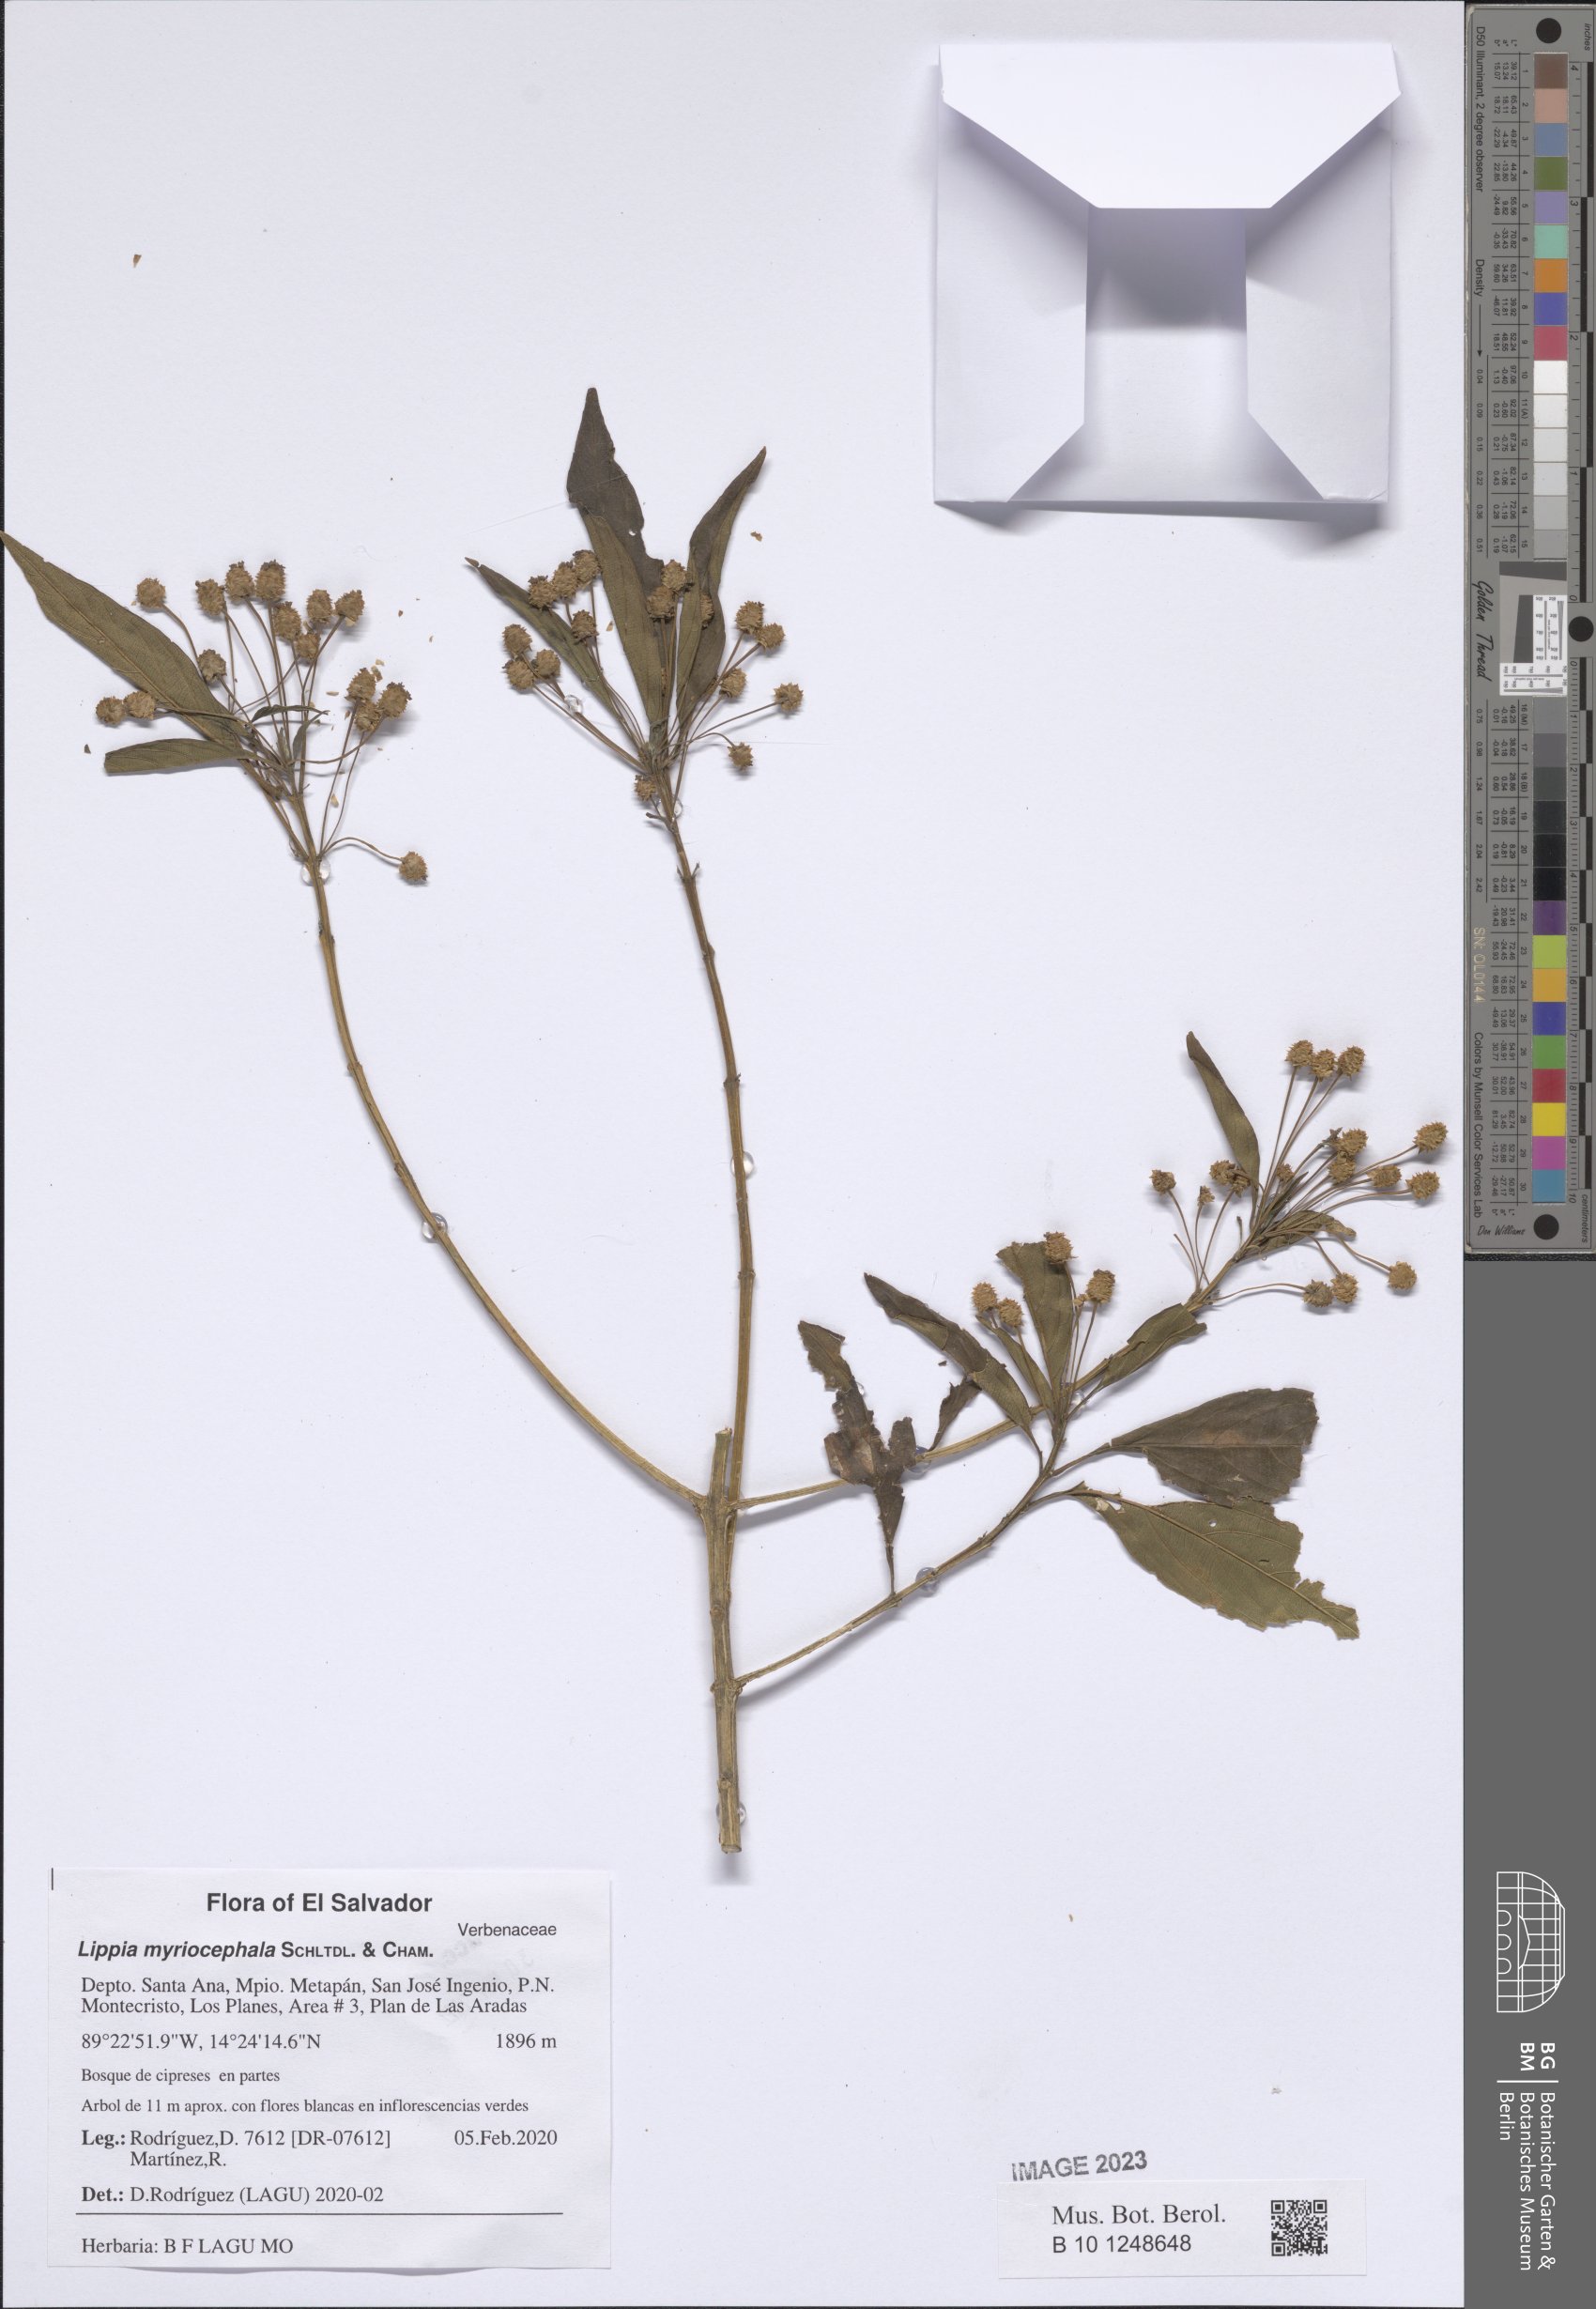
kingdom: Plantae
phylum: Tracheophyta
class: Magnoliopsida
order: Lamiales
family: Verbenaceae
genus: Lippia
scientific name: Lippia myriocephala
